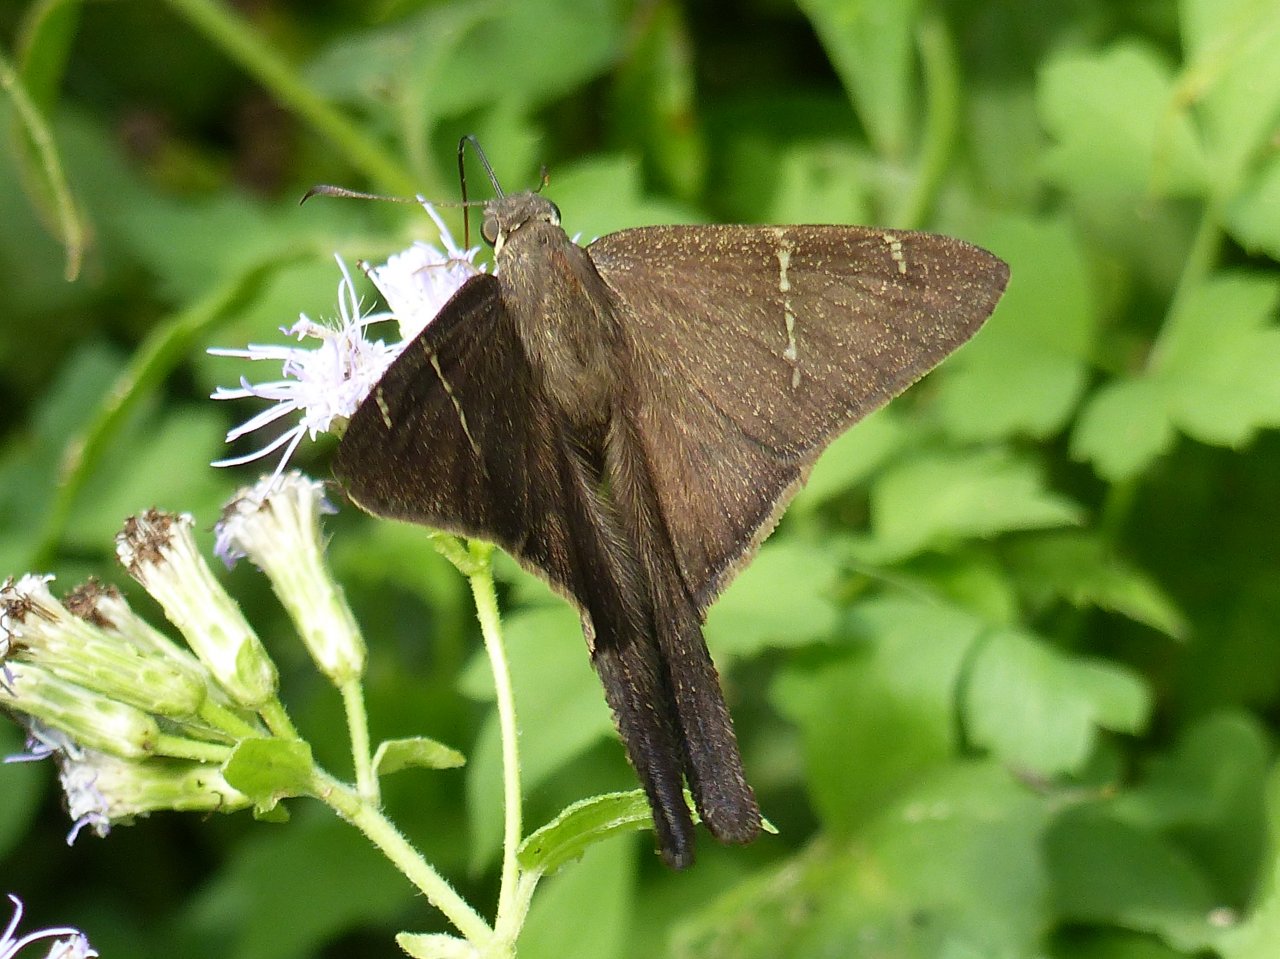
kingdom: Animalia
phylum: Arthropoda
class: Insecta
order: Lepidoptera
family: Hesperiidae
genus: Urbanus
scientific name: Urbanus procne
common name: Brown Longtail
